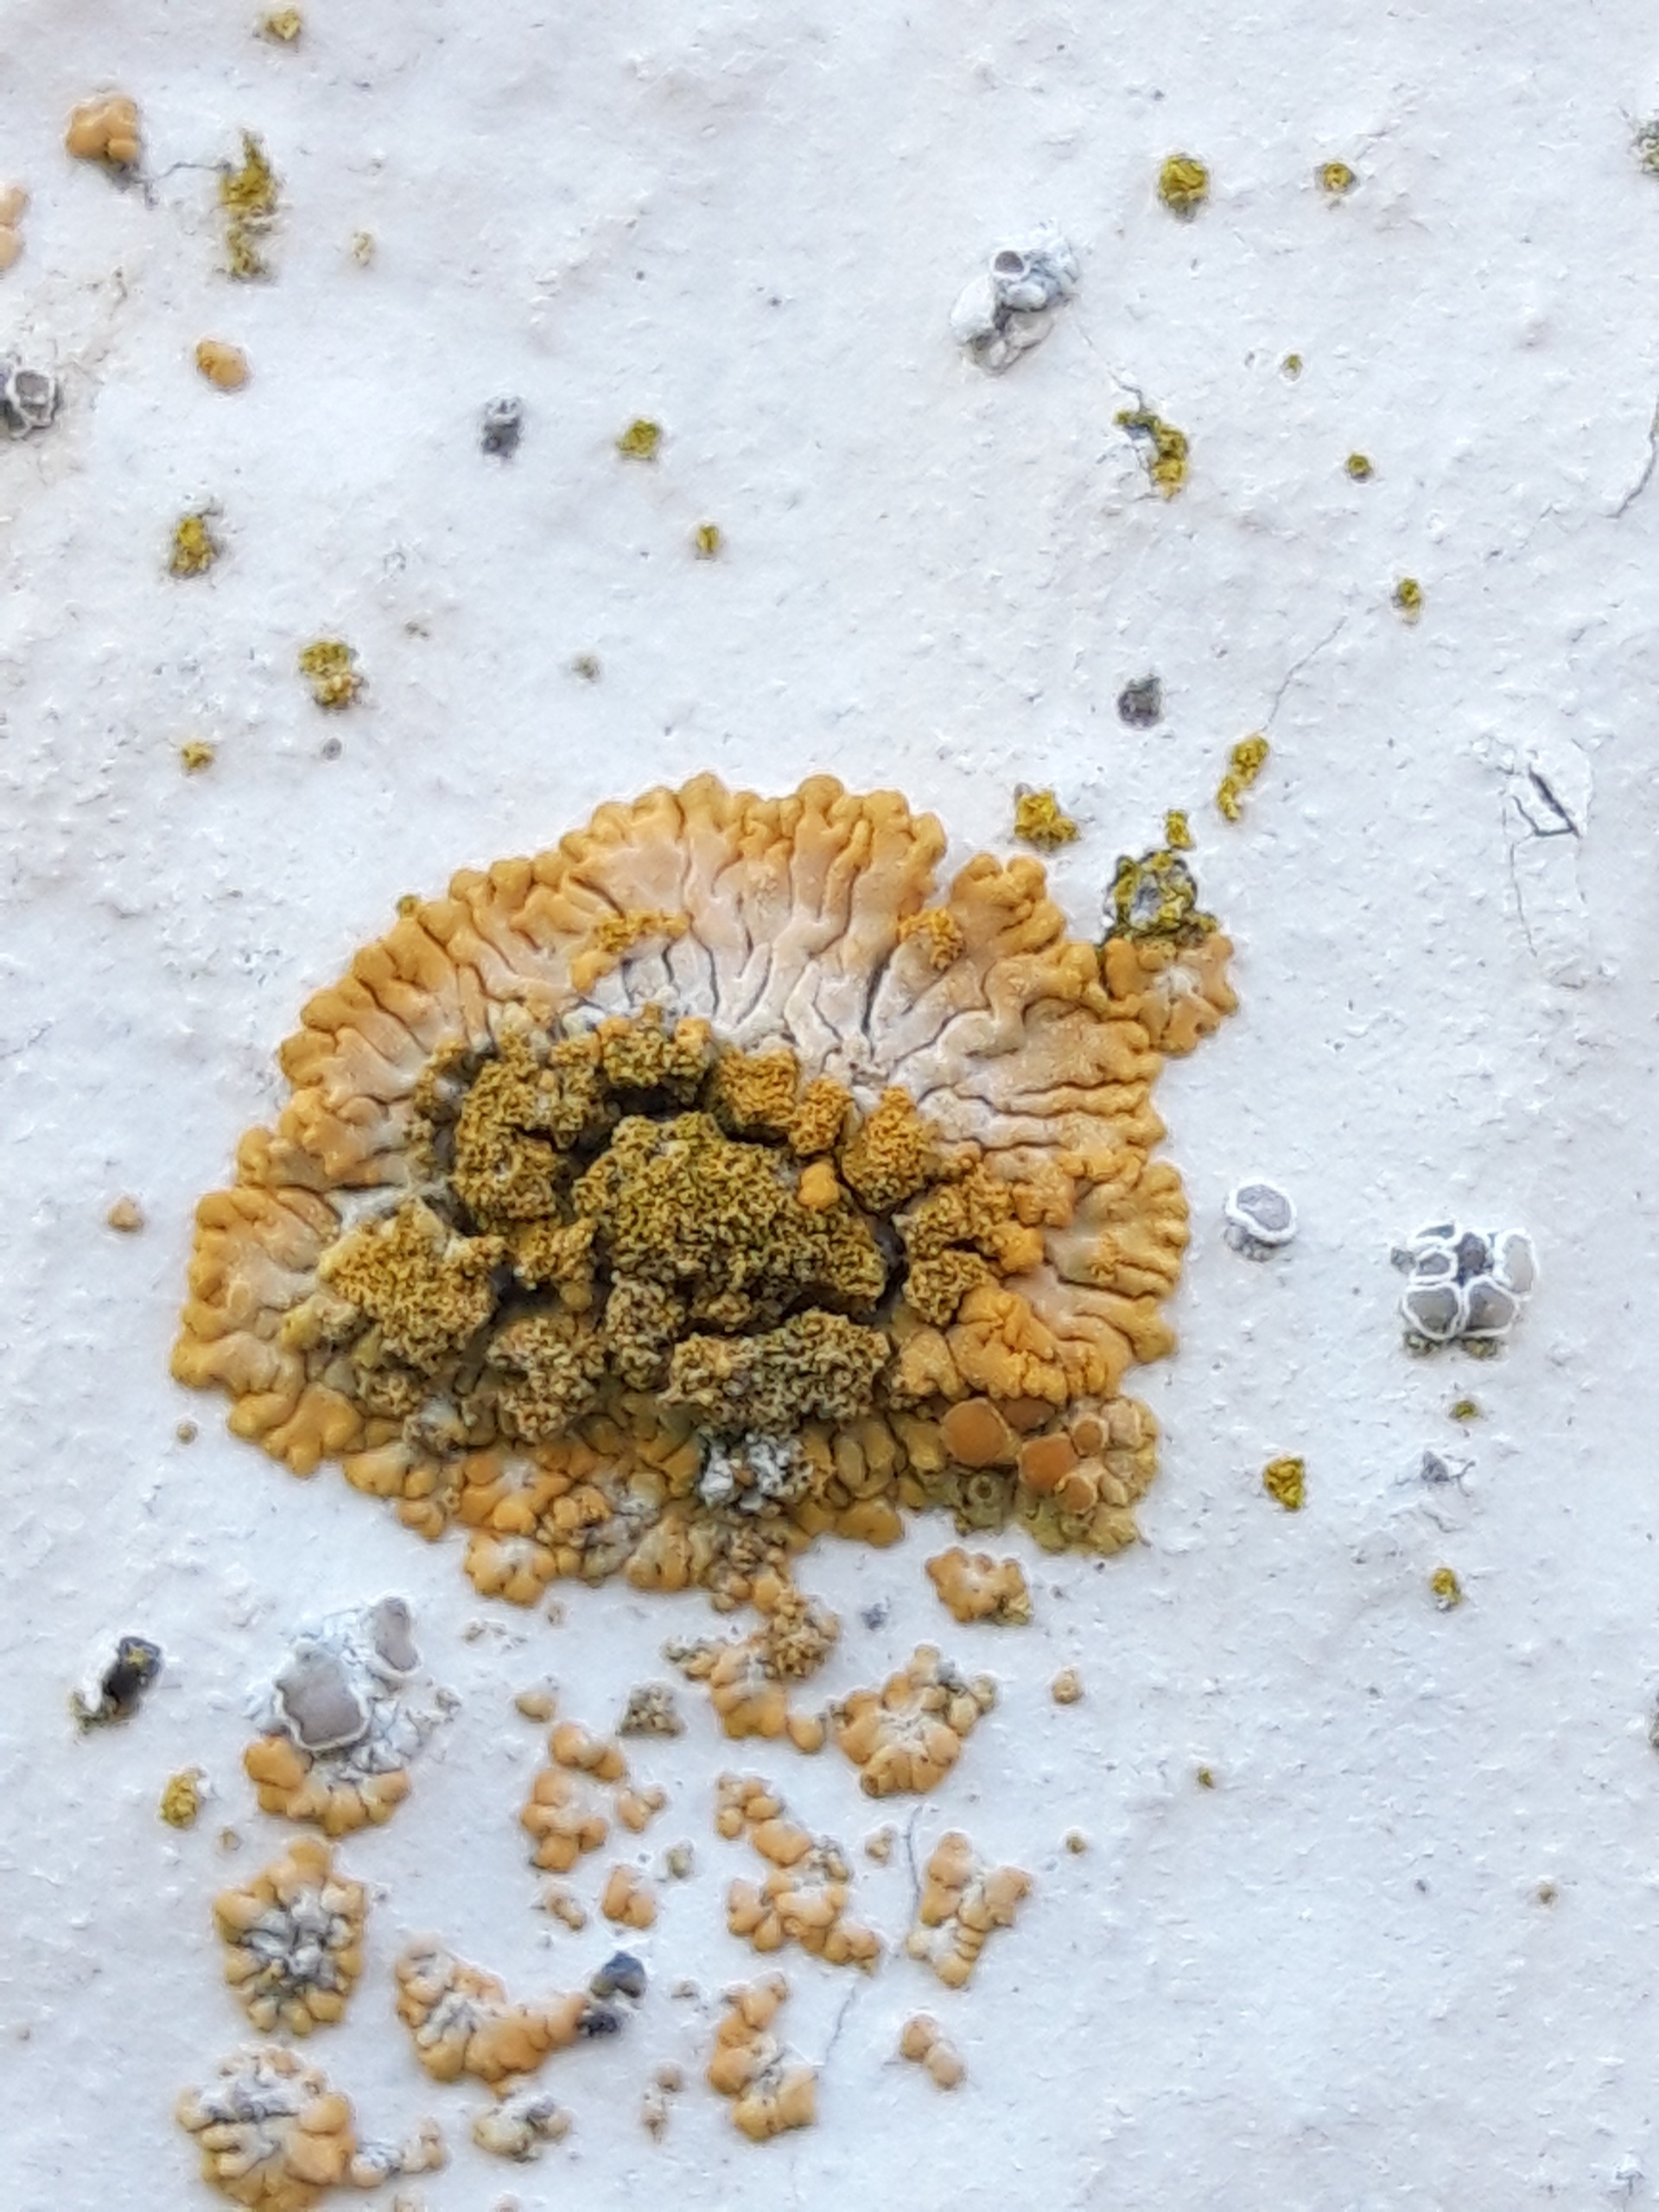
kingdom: Fungi
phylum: Ascomycota
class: Lecanoromycetes
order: Teloschistales
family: Teloschistaceae
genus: Calogaya
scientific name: Calogaya decipiens
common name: Knudret orangelav
